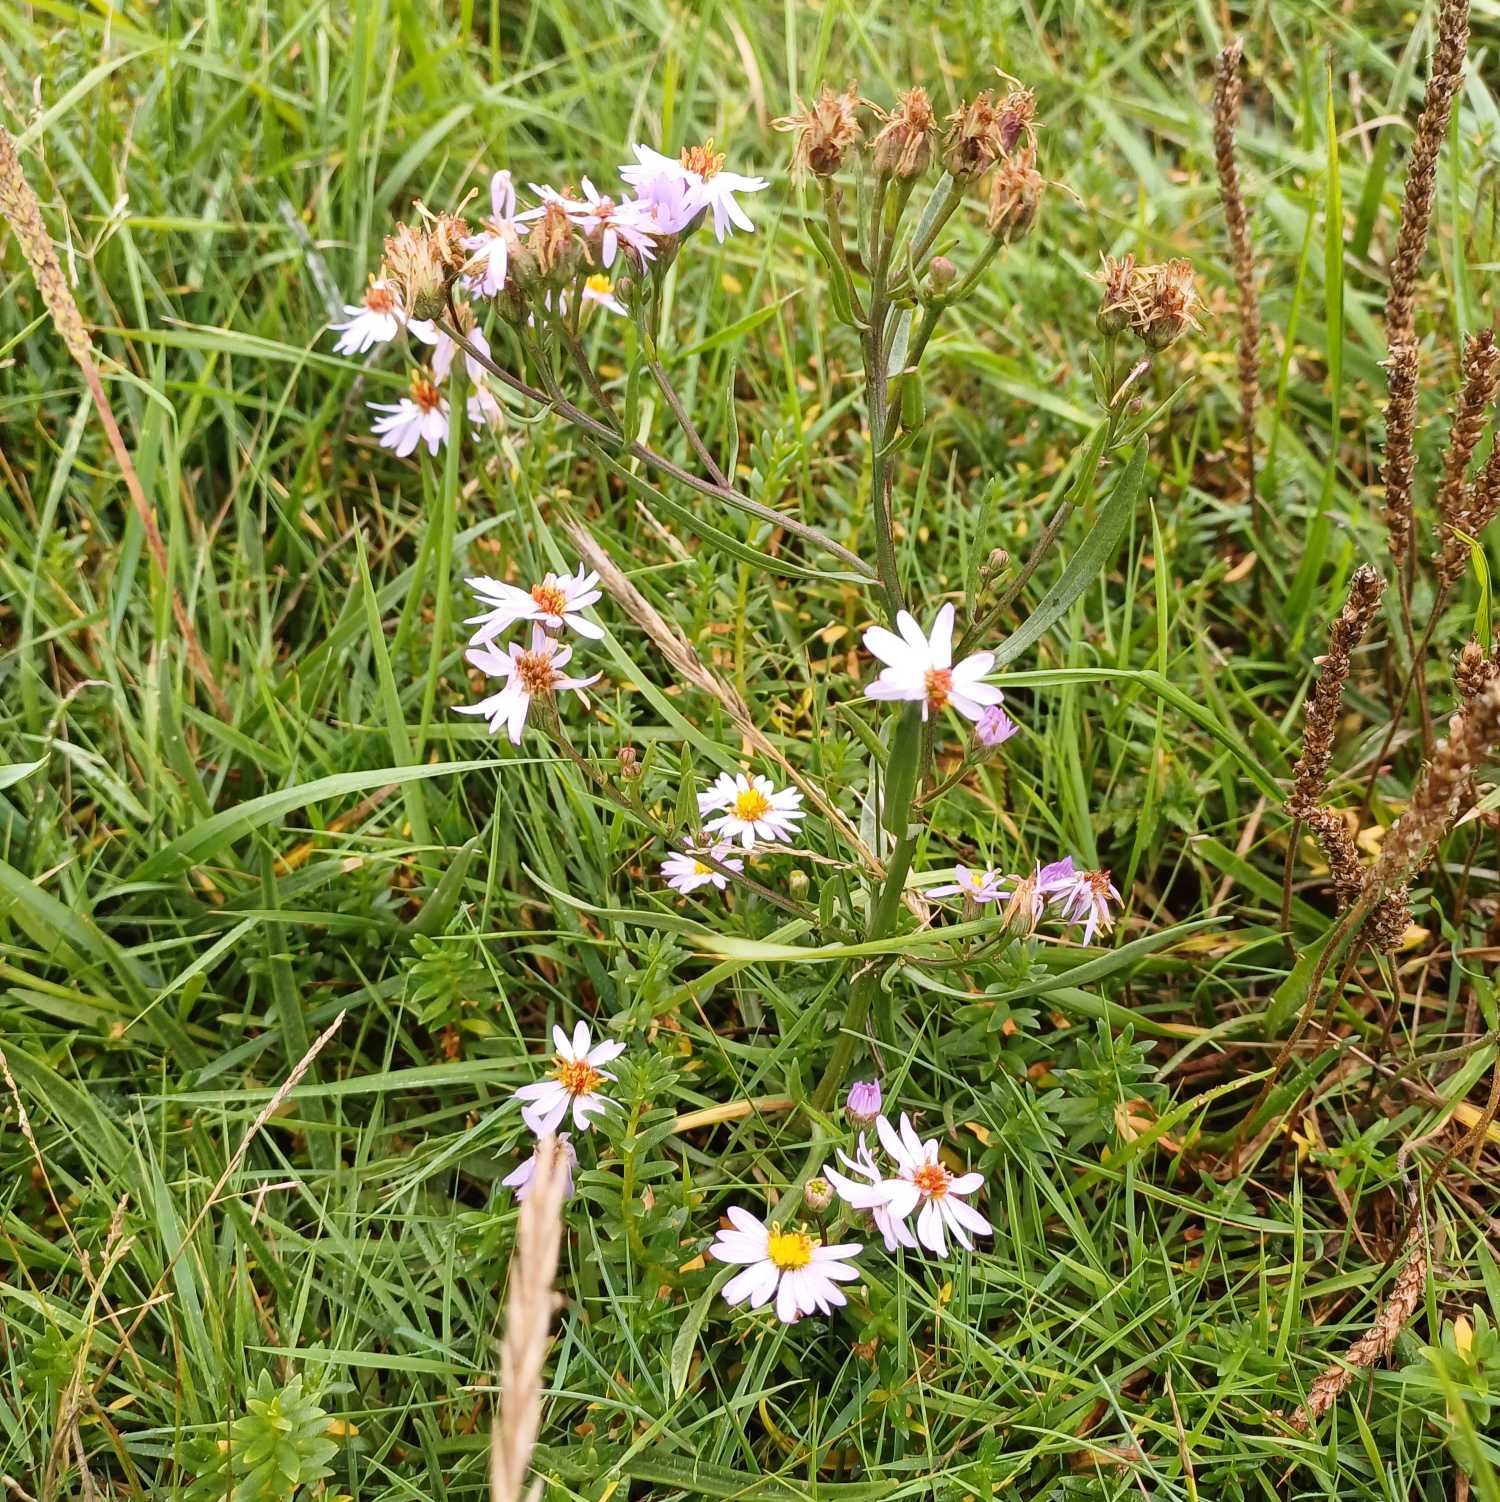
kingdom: Plantae
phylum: Tracheophyta
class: Magnoliopsida
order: Asterales
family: Asteraceae
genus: Tripolium
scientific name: Tripolium pannonicum
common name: Strandasters
